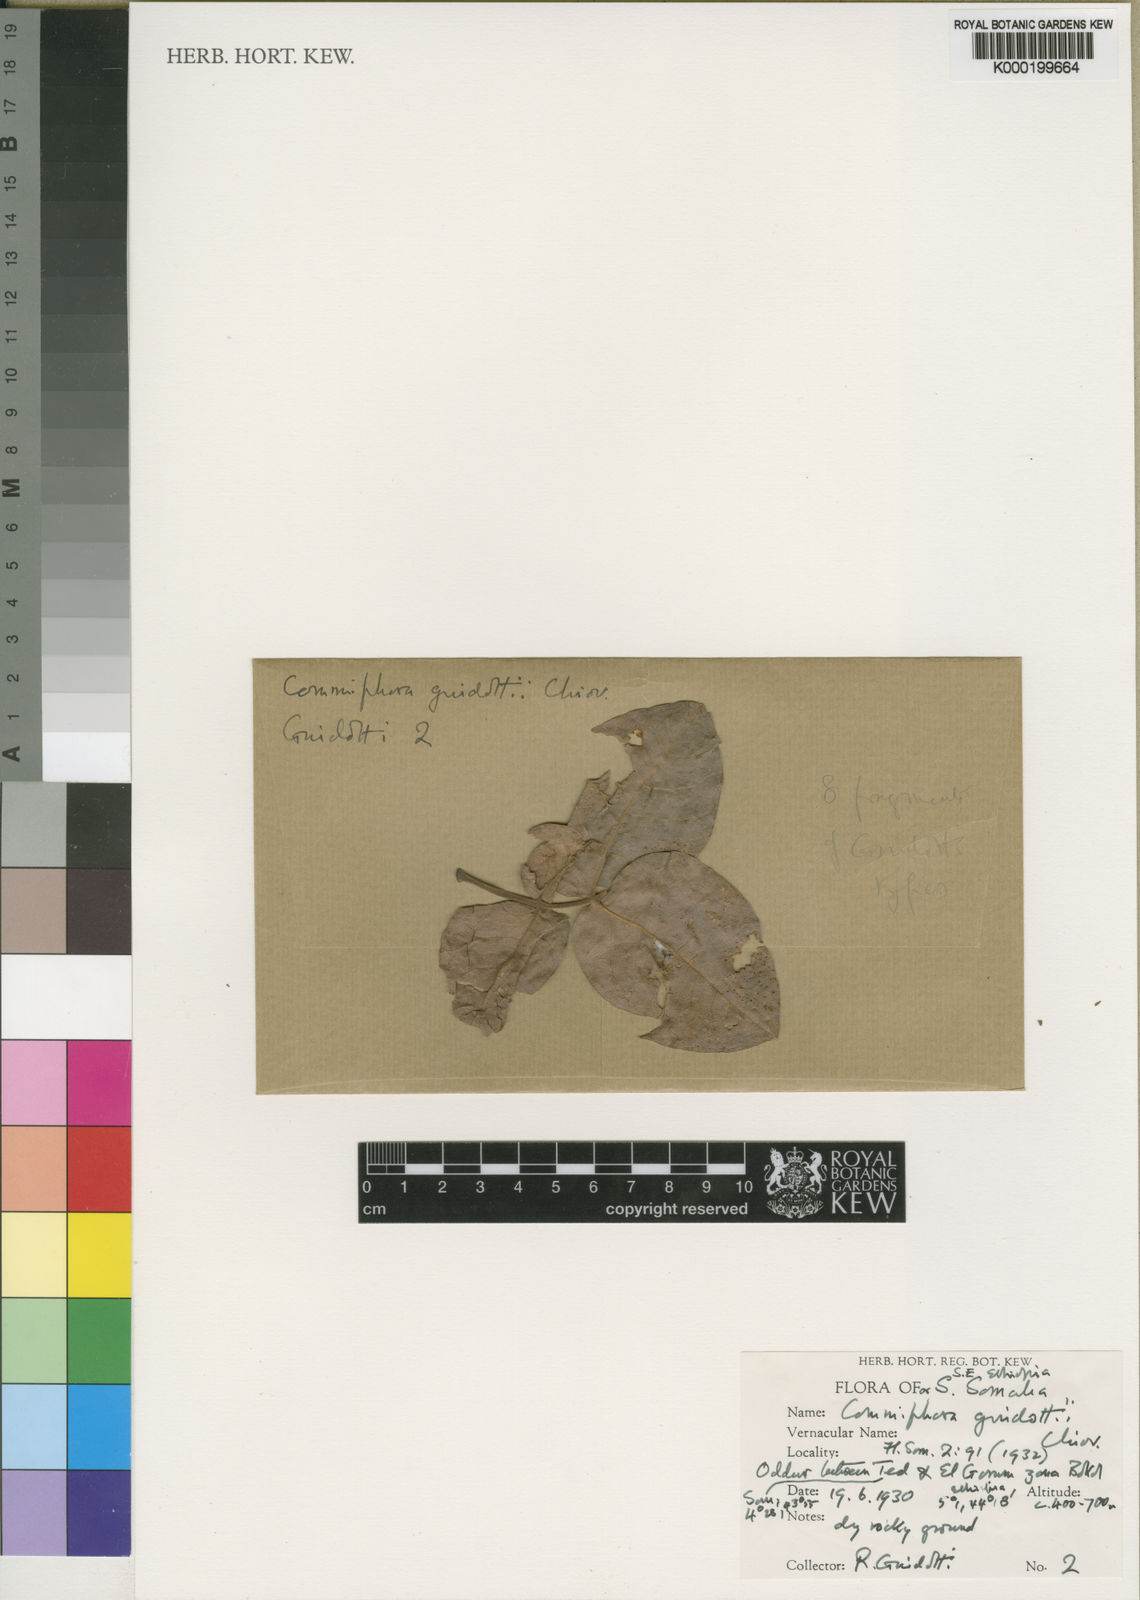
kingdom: Plantae
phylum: Tracheophyta
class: Magnoliopsida
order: Sapindales
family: Burseraceae
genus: Commiphora
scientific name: Commiphora
